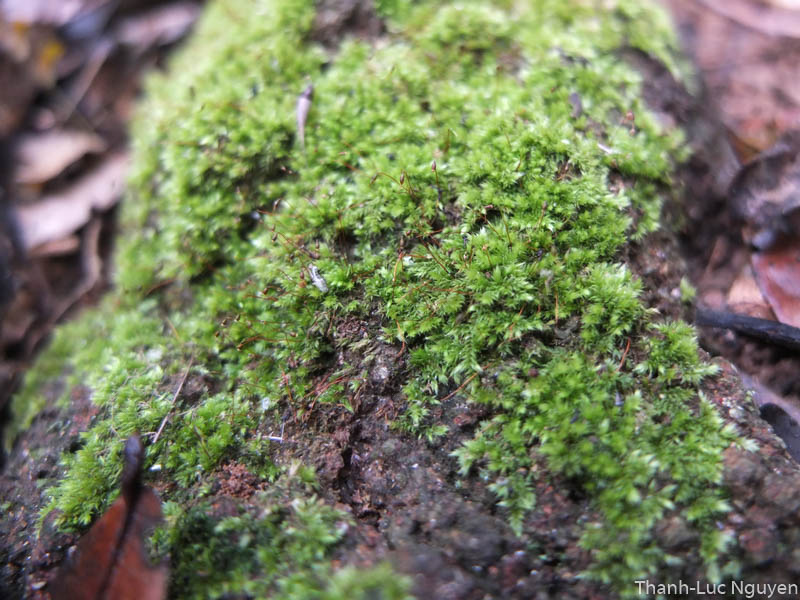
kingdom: Plantae
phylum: Bryophyta
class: Bryopsida
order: Hypnales
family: Sematophyllaceae
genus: Trichosteleum
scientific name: Trichosteleum boschii
